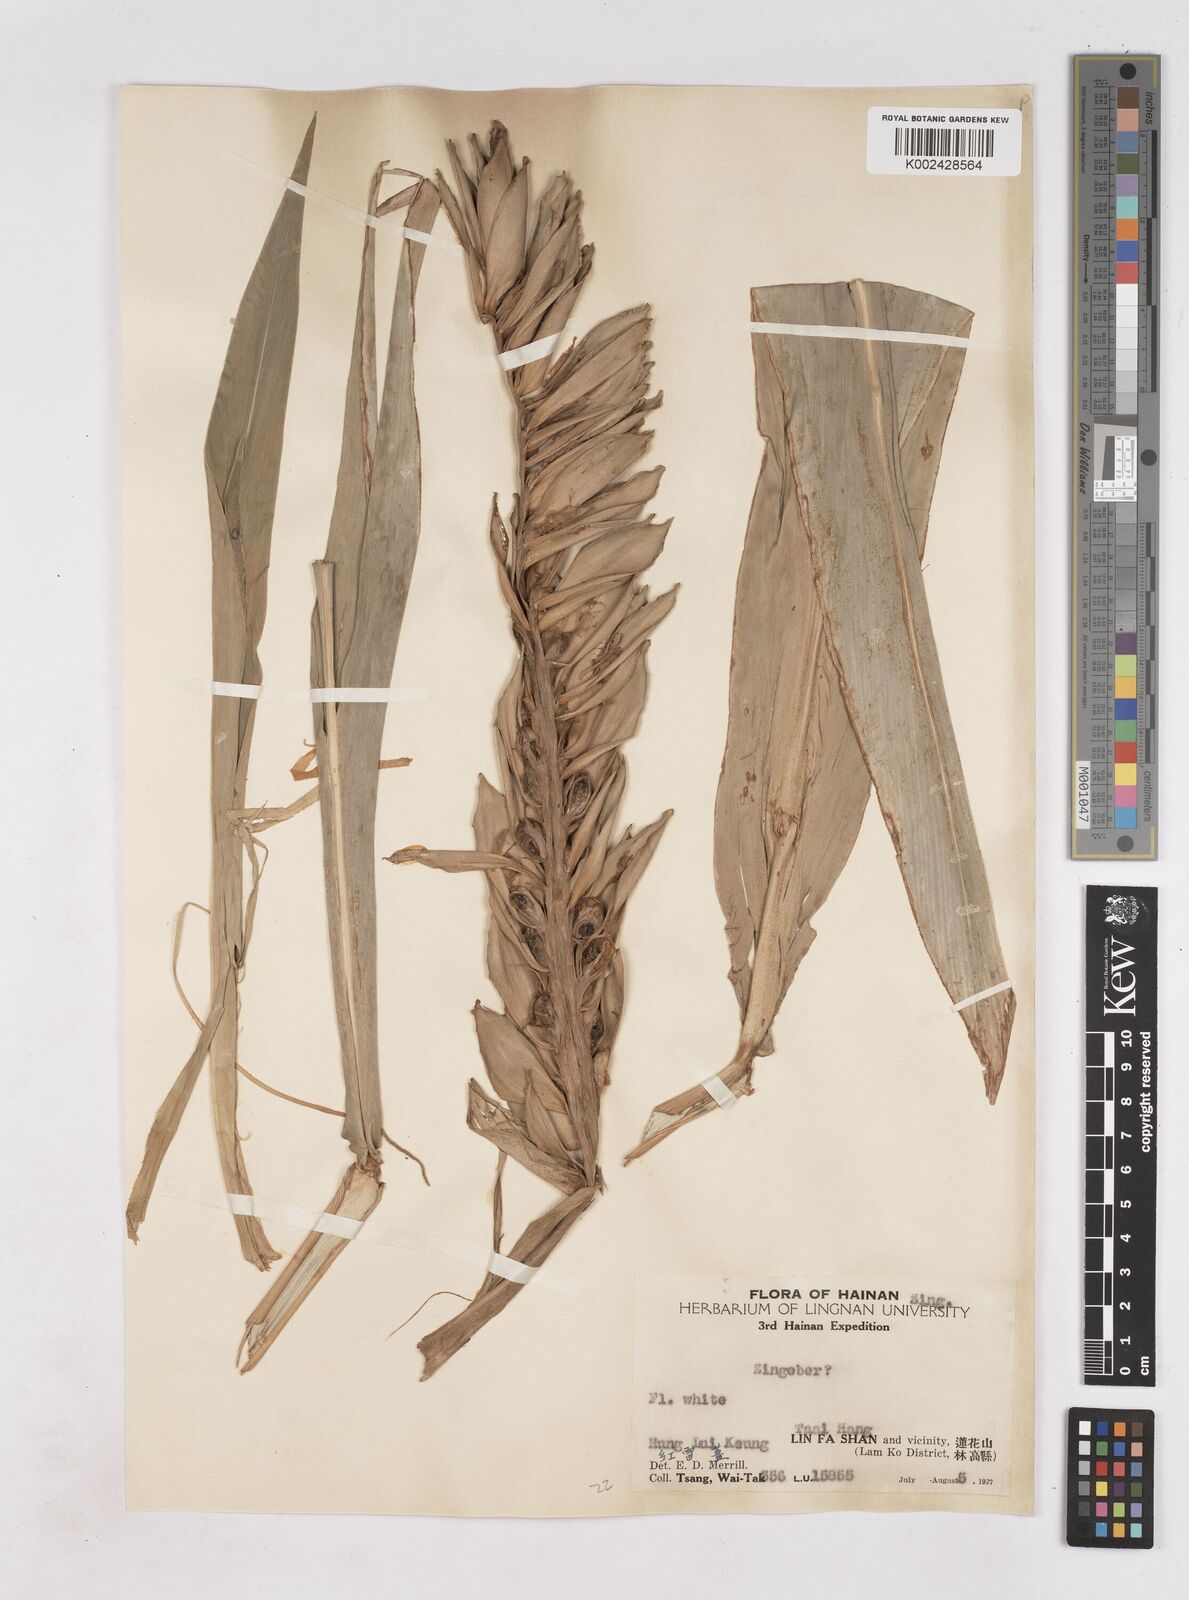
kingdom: Plantae
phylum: Tracheophyta
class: Liliopsida
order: Zingiberales
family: Zingiberaceae
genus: Zingiber
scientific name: Zingiber
